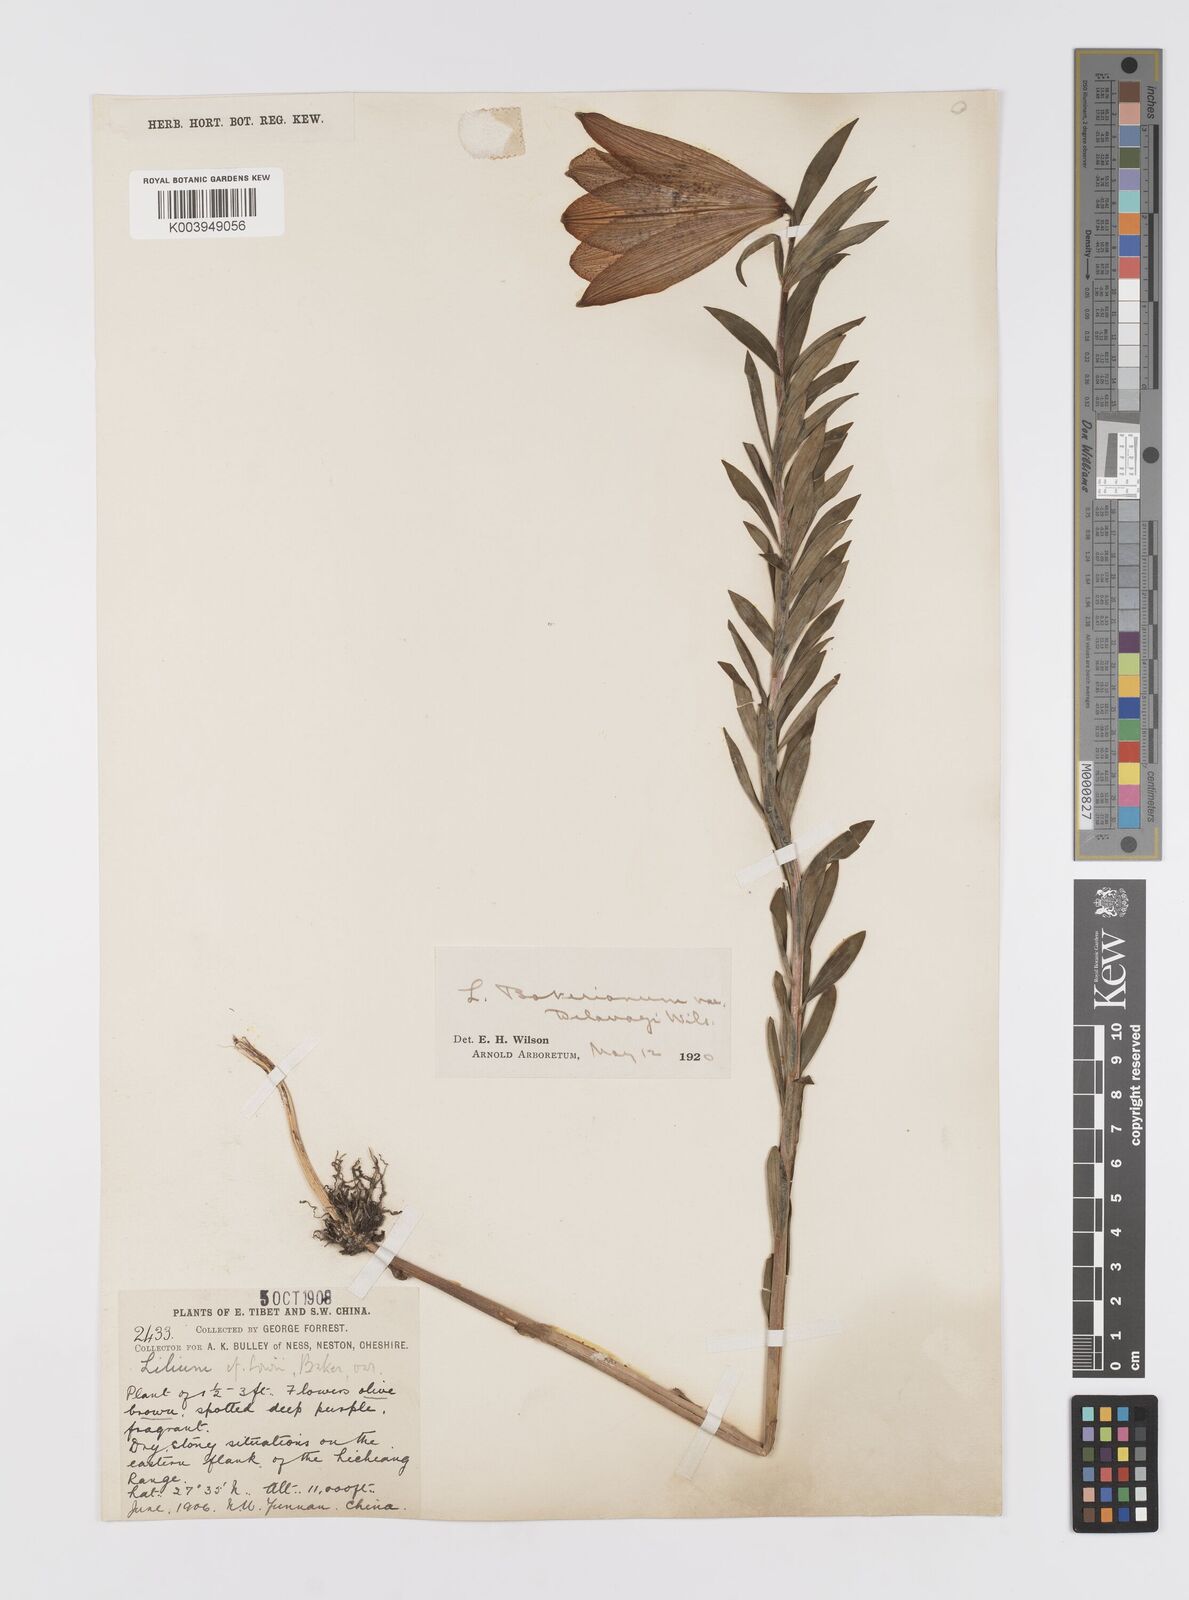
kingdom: Plantae
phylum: Tracheophyta
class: Liliopsida
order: Liliales
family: Liliaceae
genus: Lilium
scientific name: Lilium bakerianum
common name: Baker's lily
